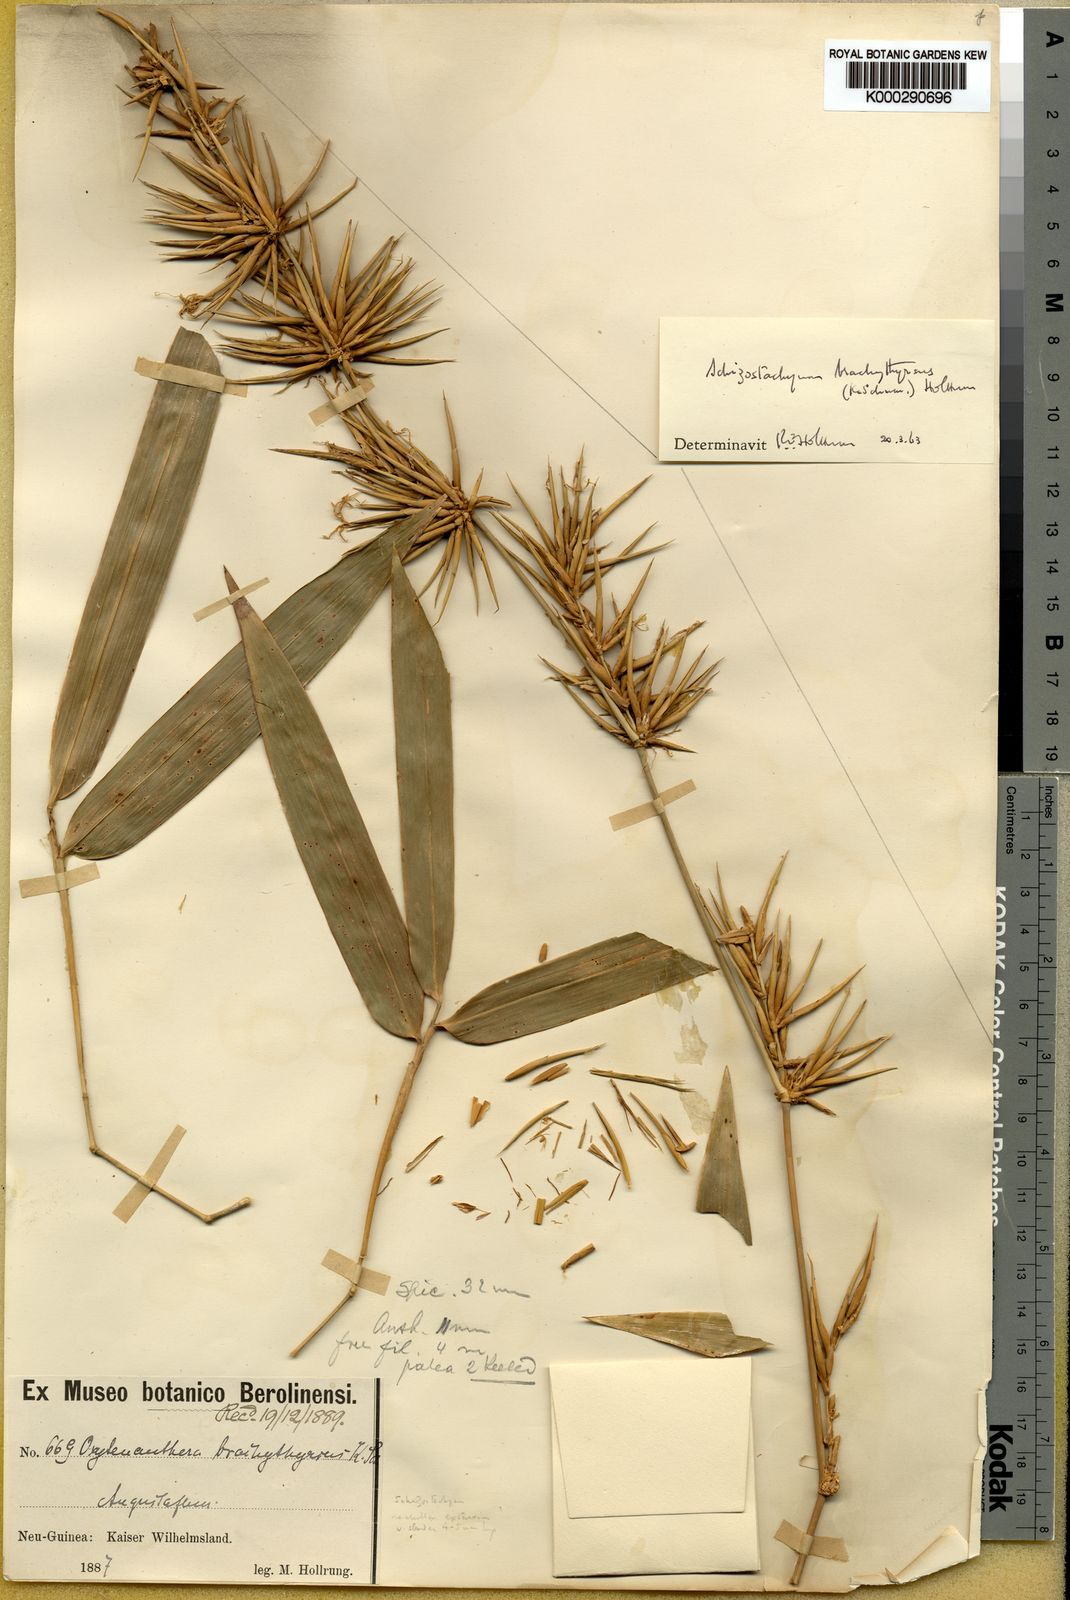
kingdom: Plantae
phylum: Tracheophyta
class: Liliopsida
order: Poales
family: Poaceae
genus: Schizostachyum
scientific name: Schizostachyum brachythyrsus
